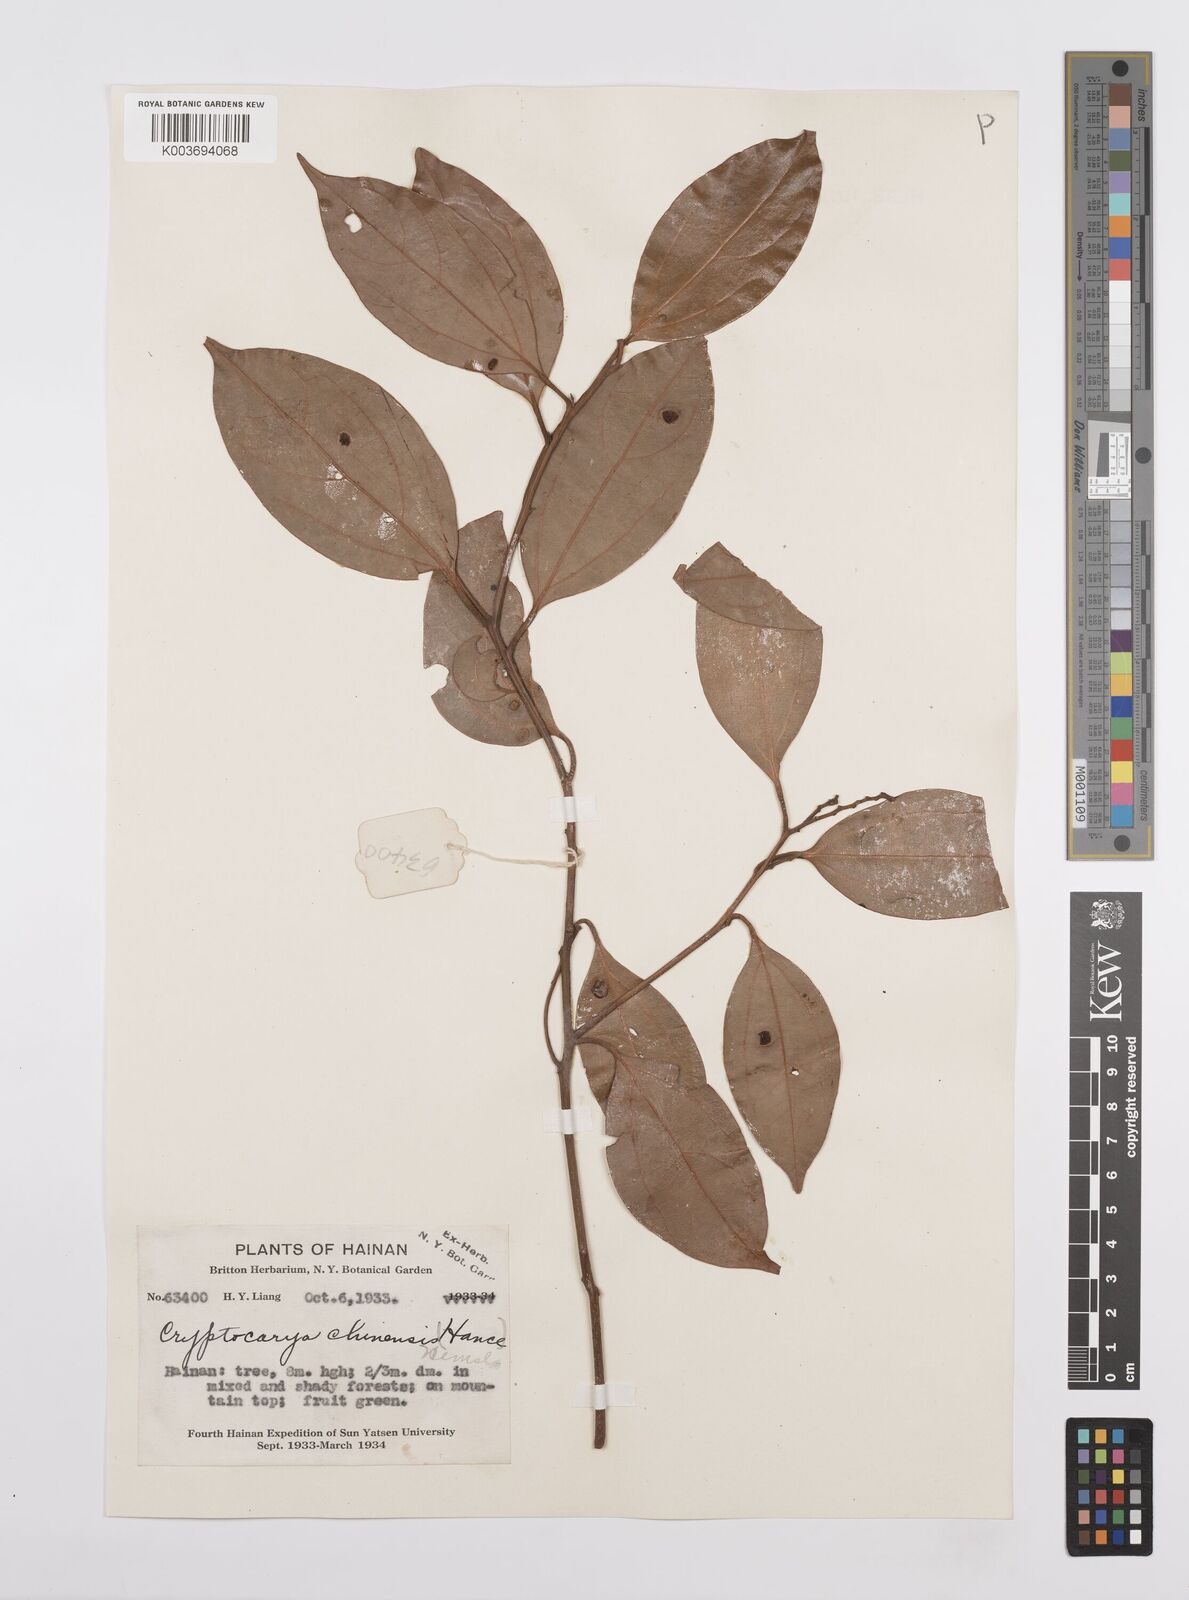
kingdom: Plantae
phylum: Tracheophyta
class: Magnoliopsida
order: Laurales
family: Lauraceae
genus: Cryptocarya
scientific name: Cryptocarya chinensis
